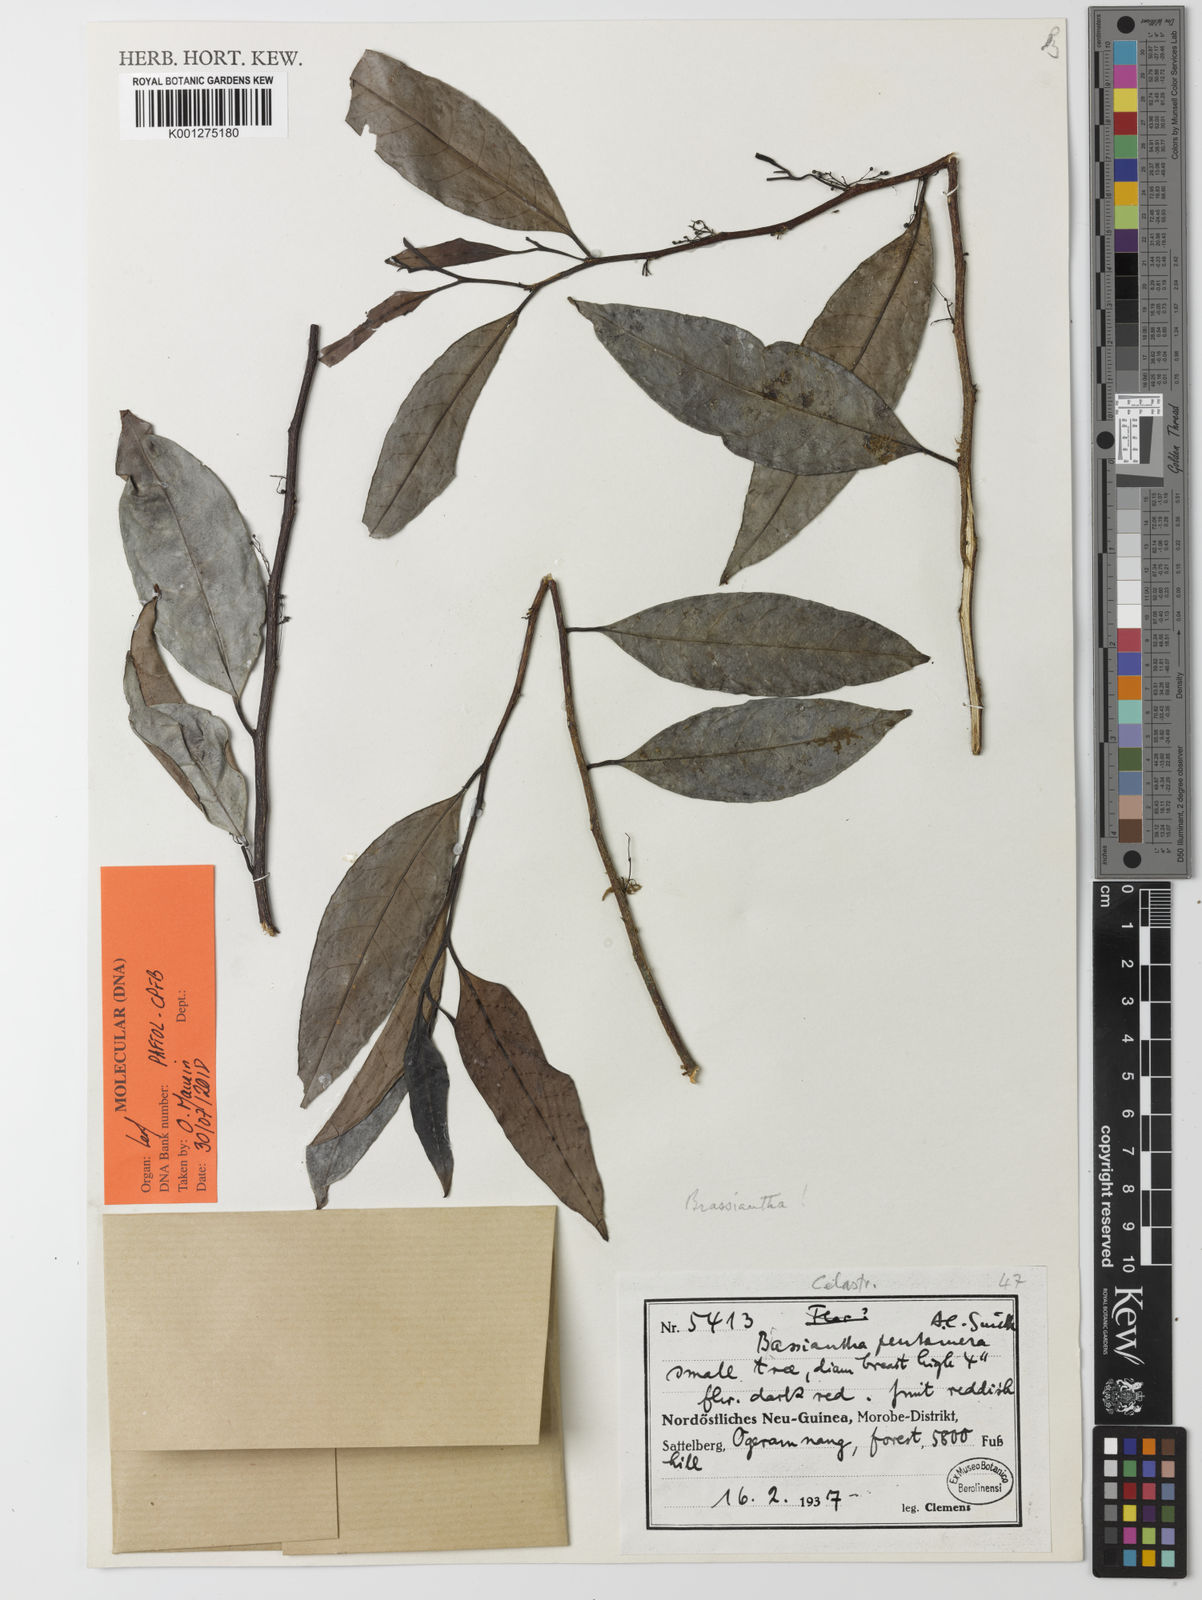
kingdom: Plantae
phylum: Tracheophyta
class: Magnoliopsida
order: Celastrales
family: Celastraceae
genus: Brassiantha
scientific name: Brassiantha pentamera
